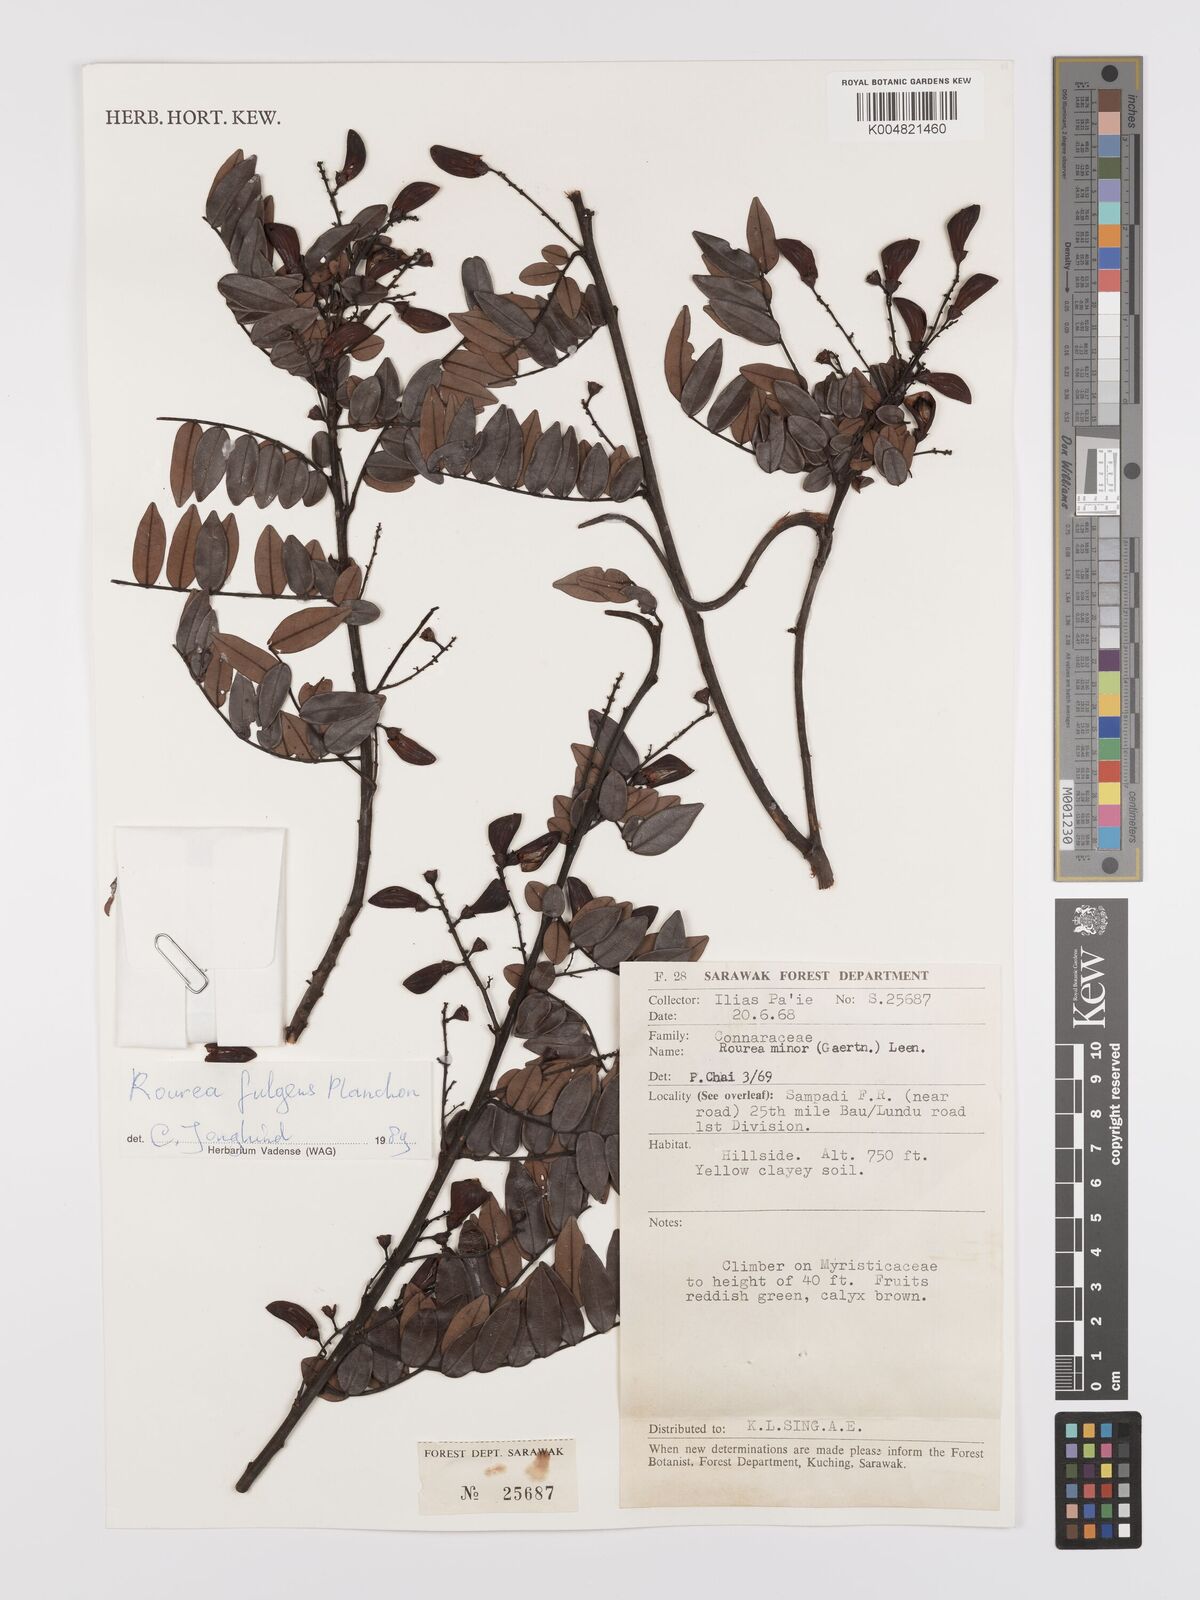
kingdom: Plantae
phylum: Tracheophyta
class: Magnoliopsida
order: Oxalidales
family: Connaraceae
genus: Rourea
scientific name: Rourea fulgens
